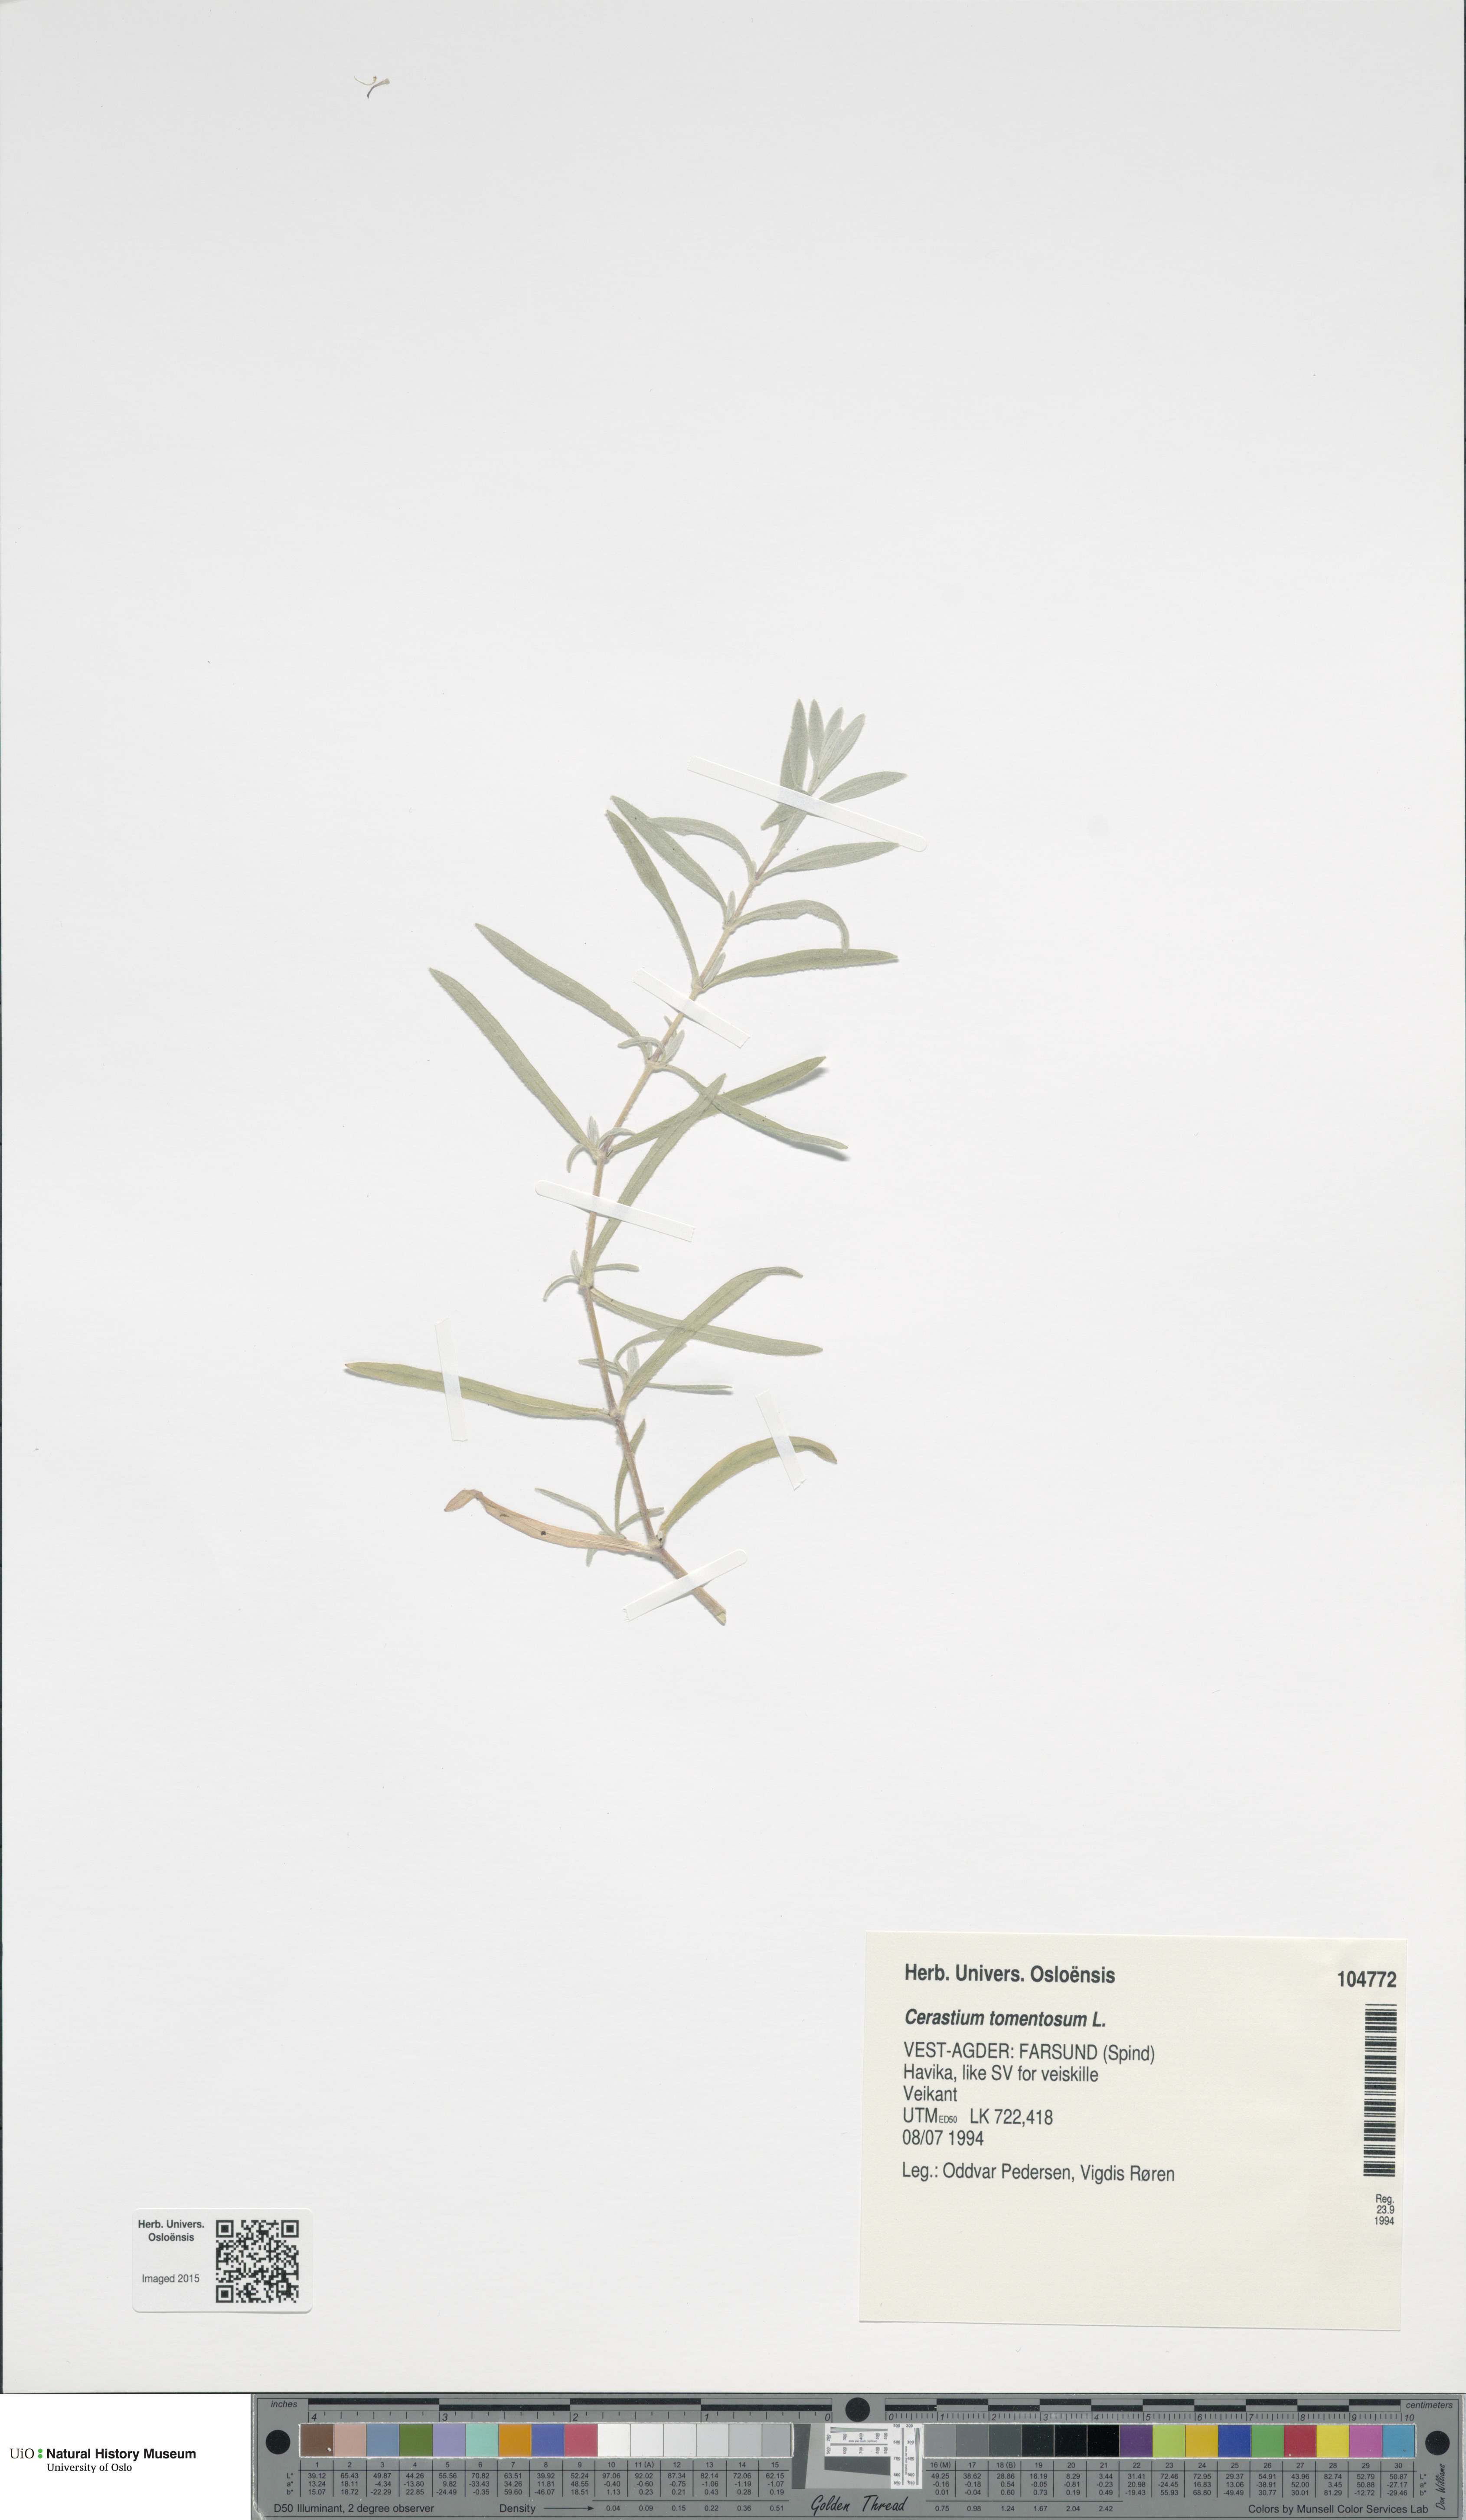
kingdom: Plantae
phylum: Tracheophyta
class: Magnoliopsida
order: Caryophyllales
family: Caryophyllaceae
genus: Cerastium
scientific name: Cerastium tomentosum
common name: Snow-in-summer
